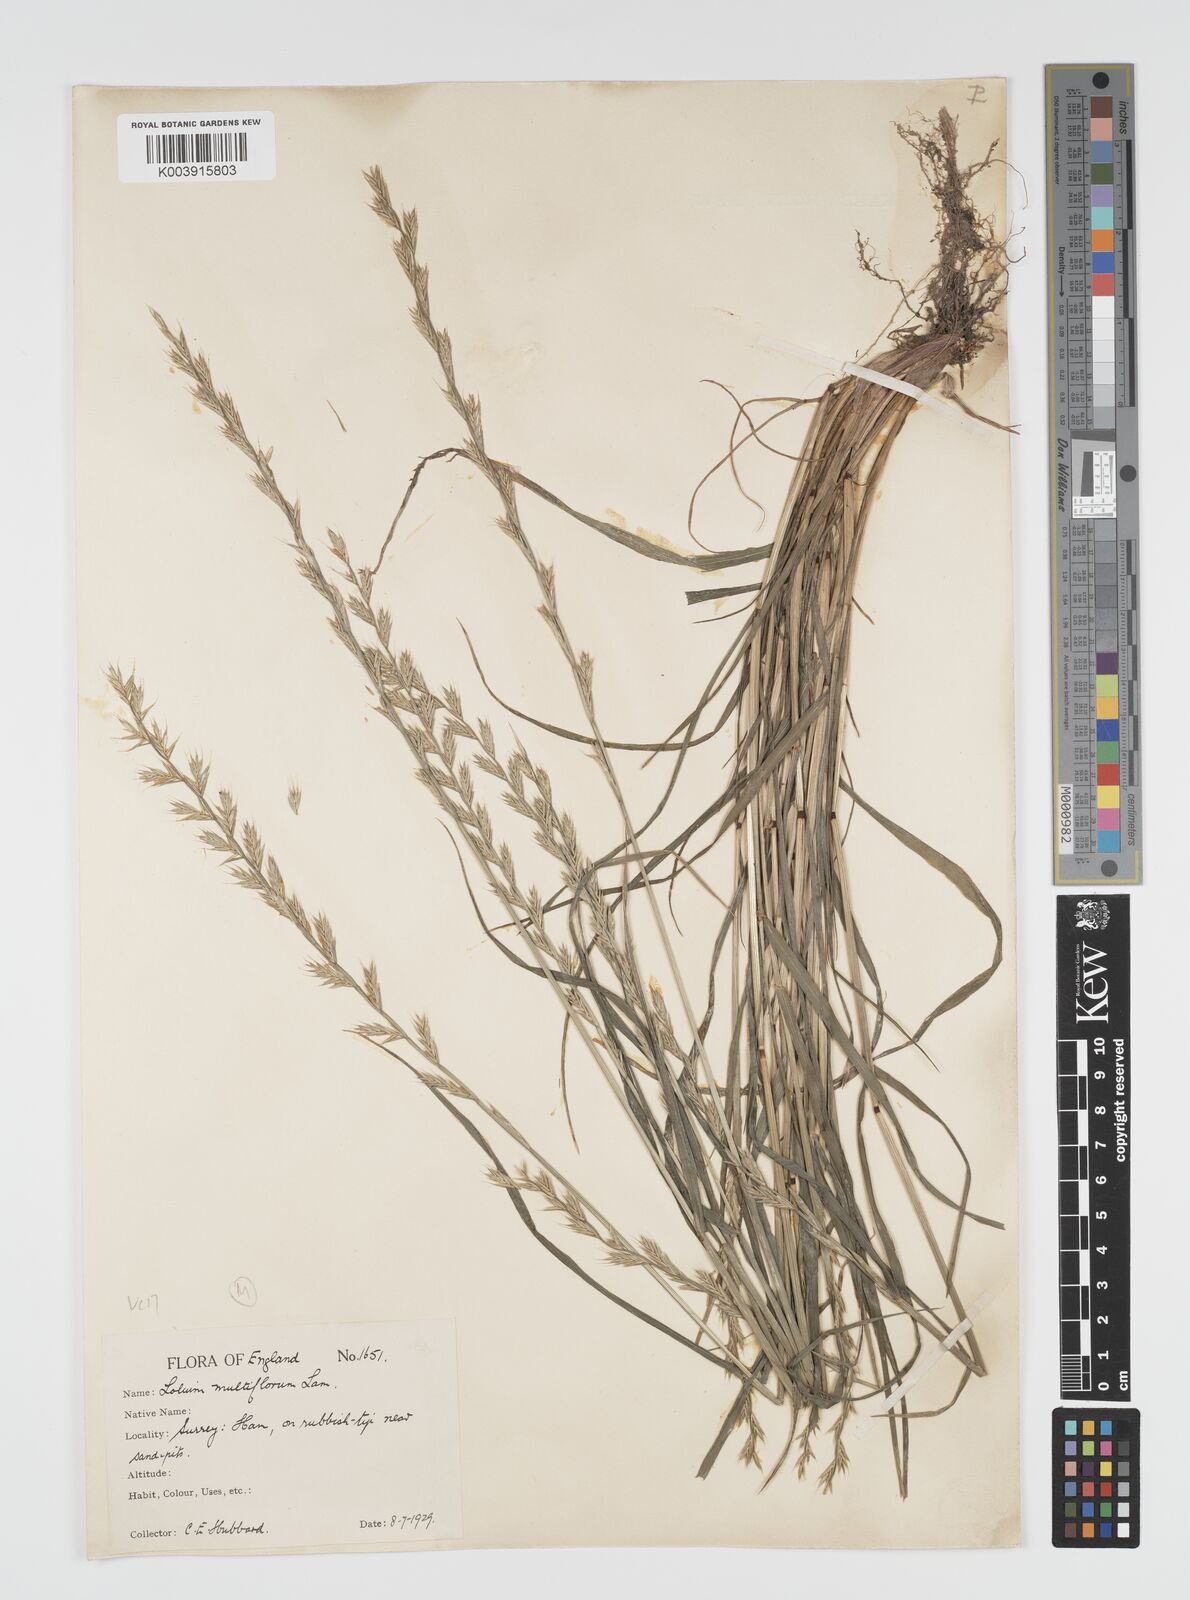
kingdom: Plantae
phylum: Tracheophyta
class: Liliopsida
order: Poales
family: Poaceae
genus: Lolium
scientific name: Lolium multiflorum
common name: Annual ryegrass
